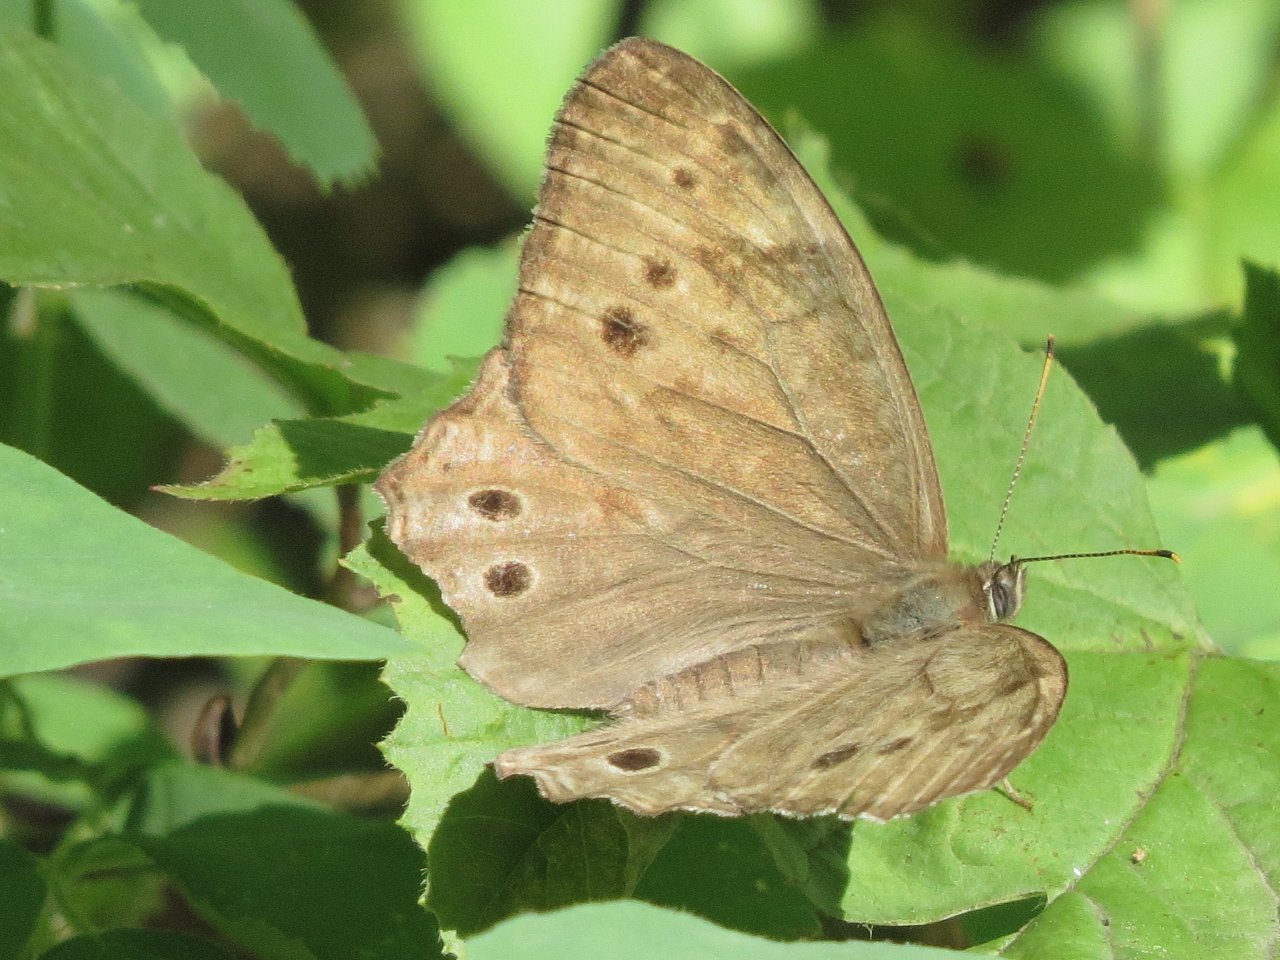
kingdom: Animalia
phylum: Arthropoda
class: Insecta
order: Lepidoptera
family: Nymphalidae
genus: Lethe
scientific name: Lethe anthedon
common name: Northern Pearly-Eye
